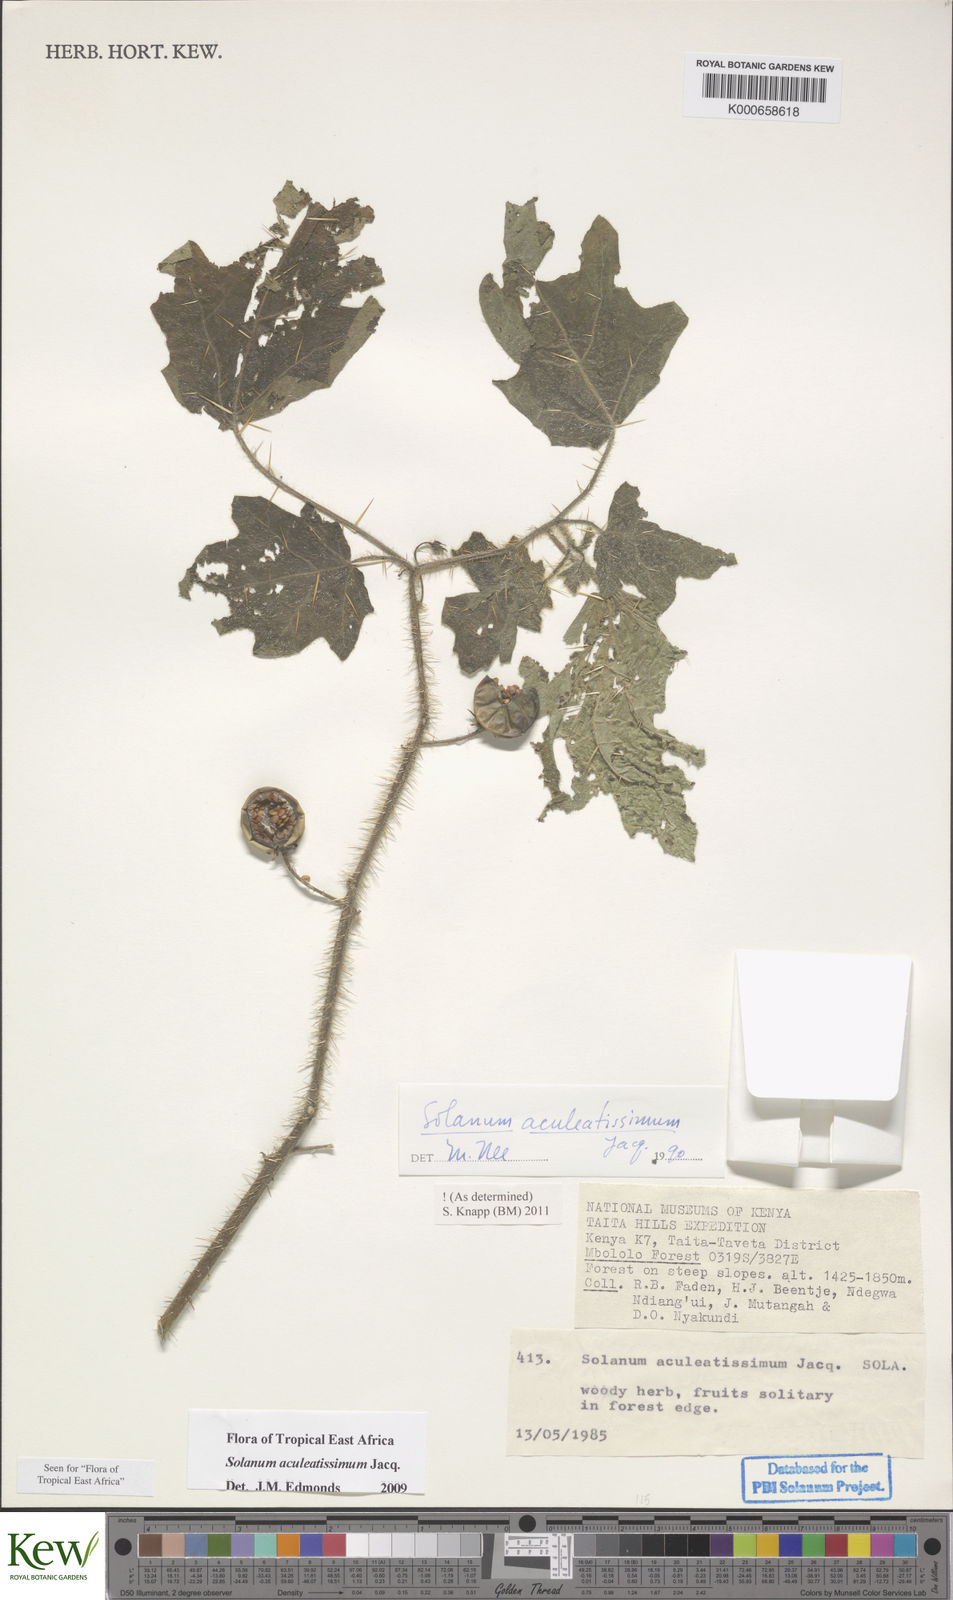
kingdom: Plantae
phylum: Tracheophyta
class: Magnoliopsida
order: Solanales
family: Solanaceae
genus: Solanum
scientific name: Solanum aculeatissimum
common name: Dutch eggplant
